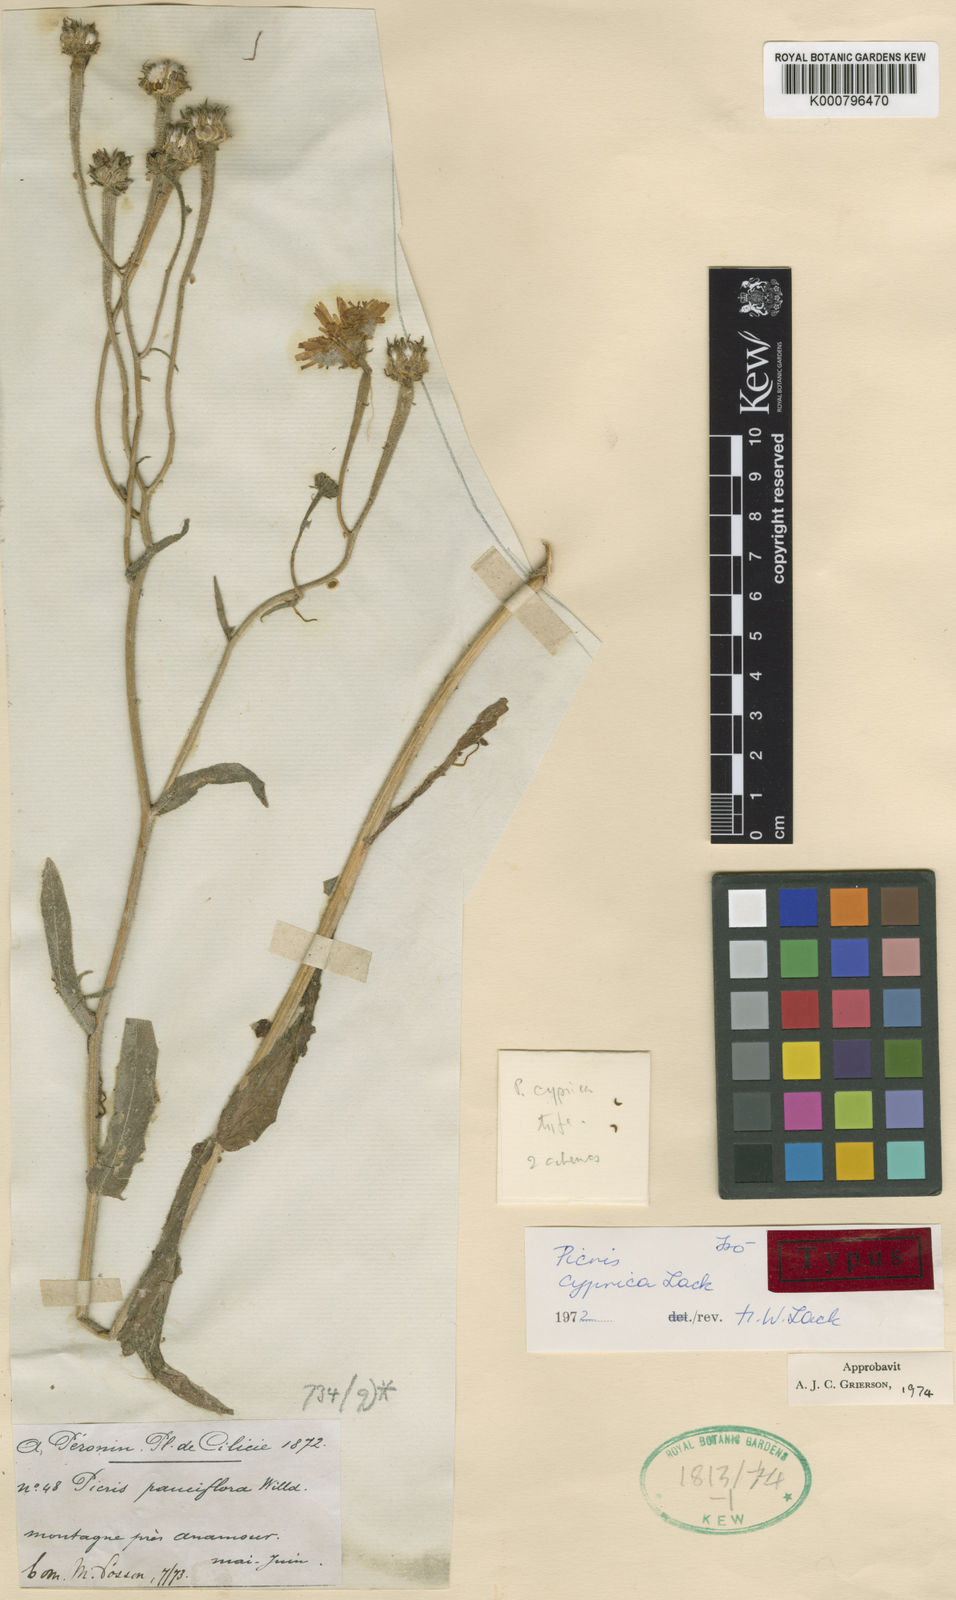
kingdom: Plantae
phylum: Tracheophyta
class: Magnoliopsida
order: Asterales
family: Asteraceae
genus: Picris
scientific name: Picris cyprica
